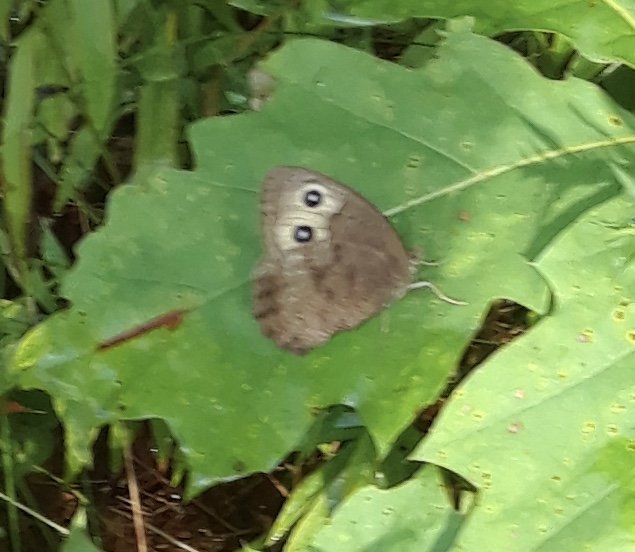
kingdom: Animalia
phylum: Arthropoda
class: Insecta
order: Lepidoptera
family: Nymphalidae
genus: Cercyonis
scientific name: Cercyonis pegala
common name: Common Wood-Nymph
